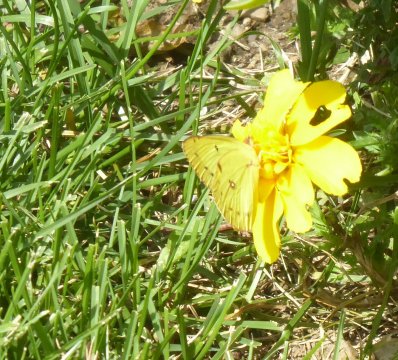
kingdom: Animalia
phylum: Arthropoda
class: Insecta
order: Lepidoptera
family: Pieridae
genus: Colias
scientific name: Colias philodice
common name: Clouded Sulphur
